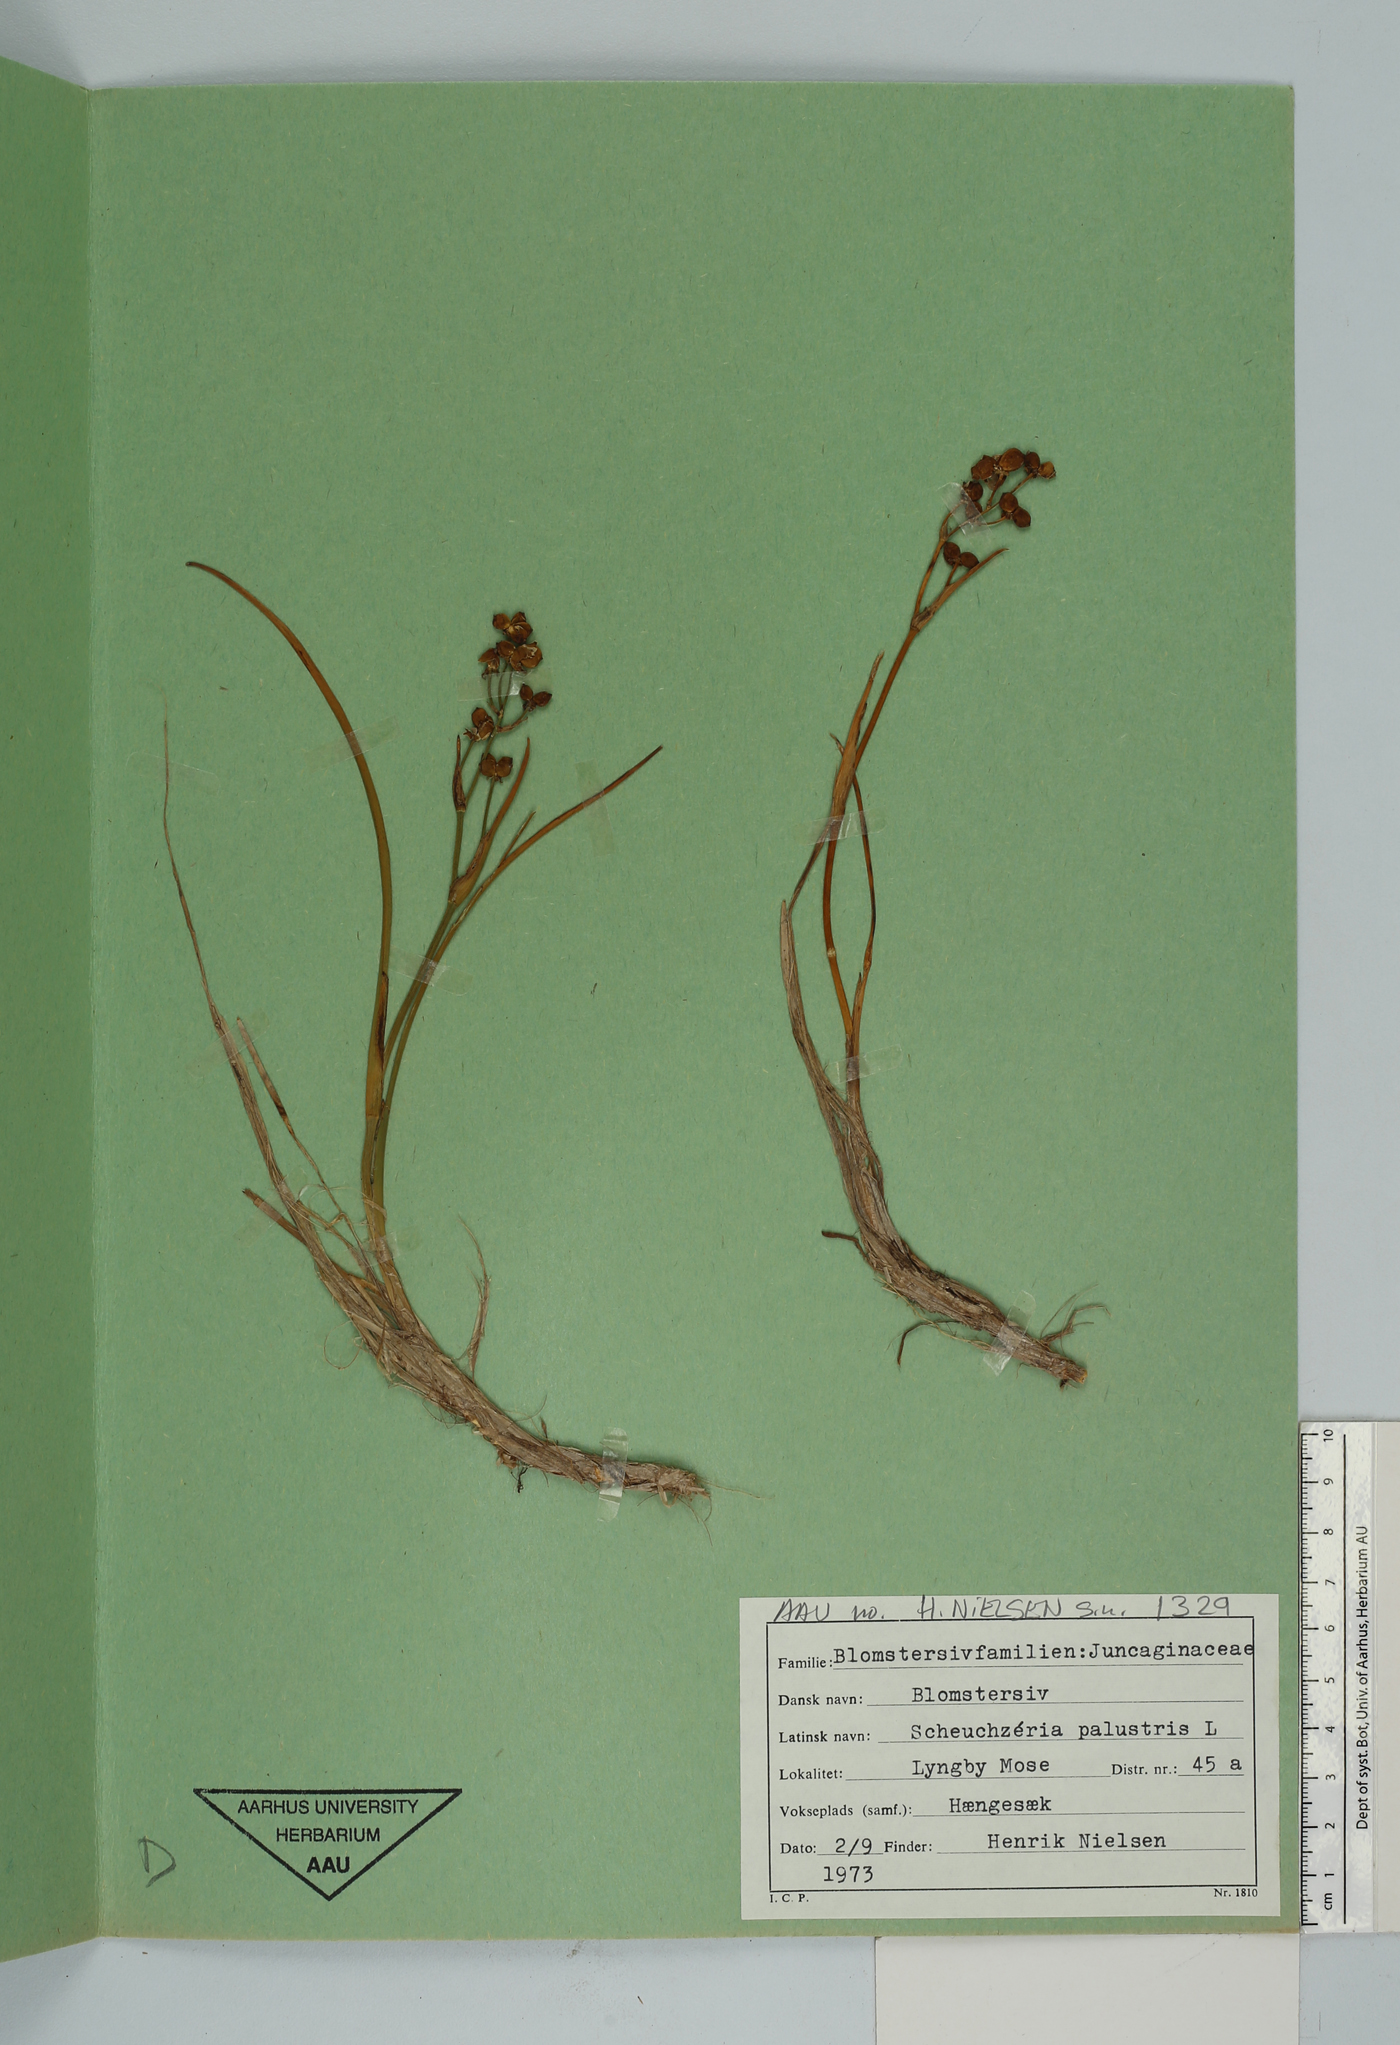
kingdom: Plantae
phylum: Tracheophyta
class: Liliopsida
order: Alismatales
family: Scheuchzeriaceae
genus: Scheuchzeria
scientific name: Scheuchzeria palustris
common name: Rannoch-rush
